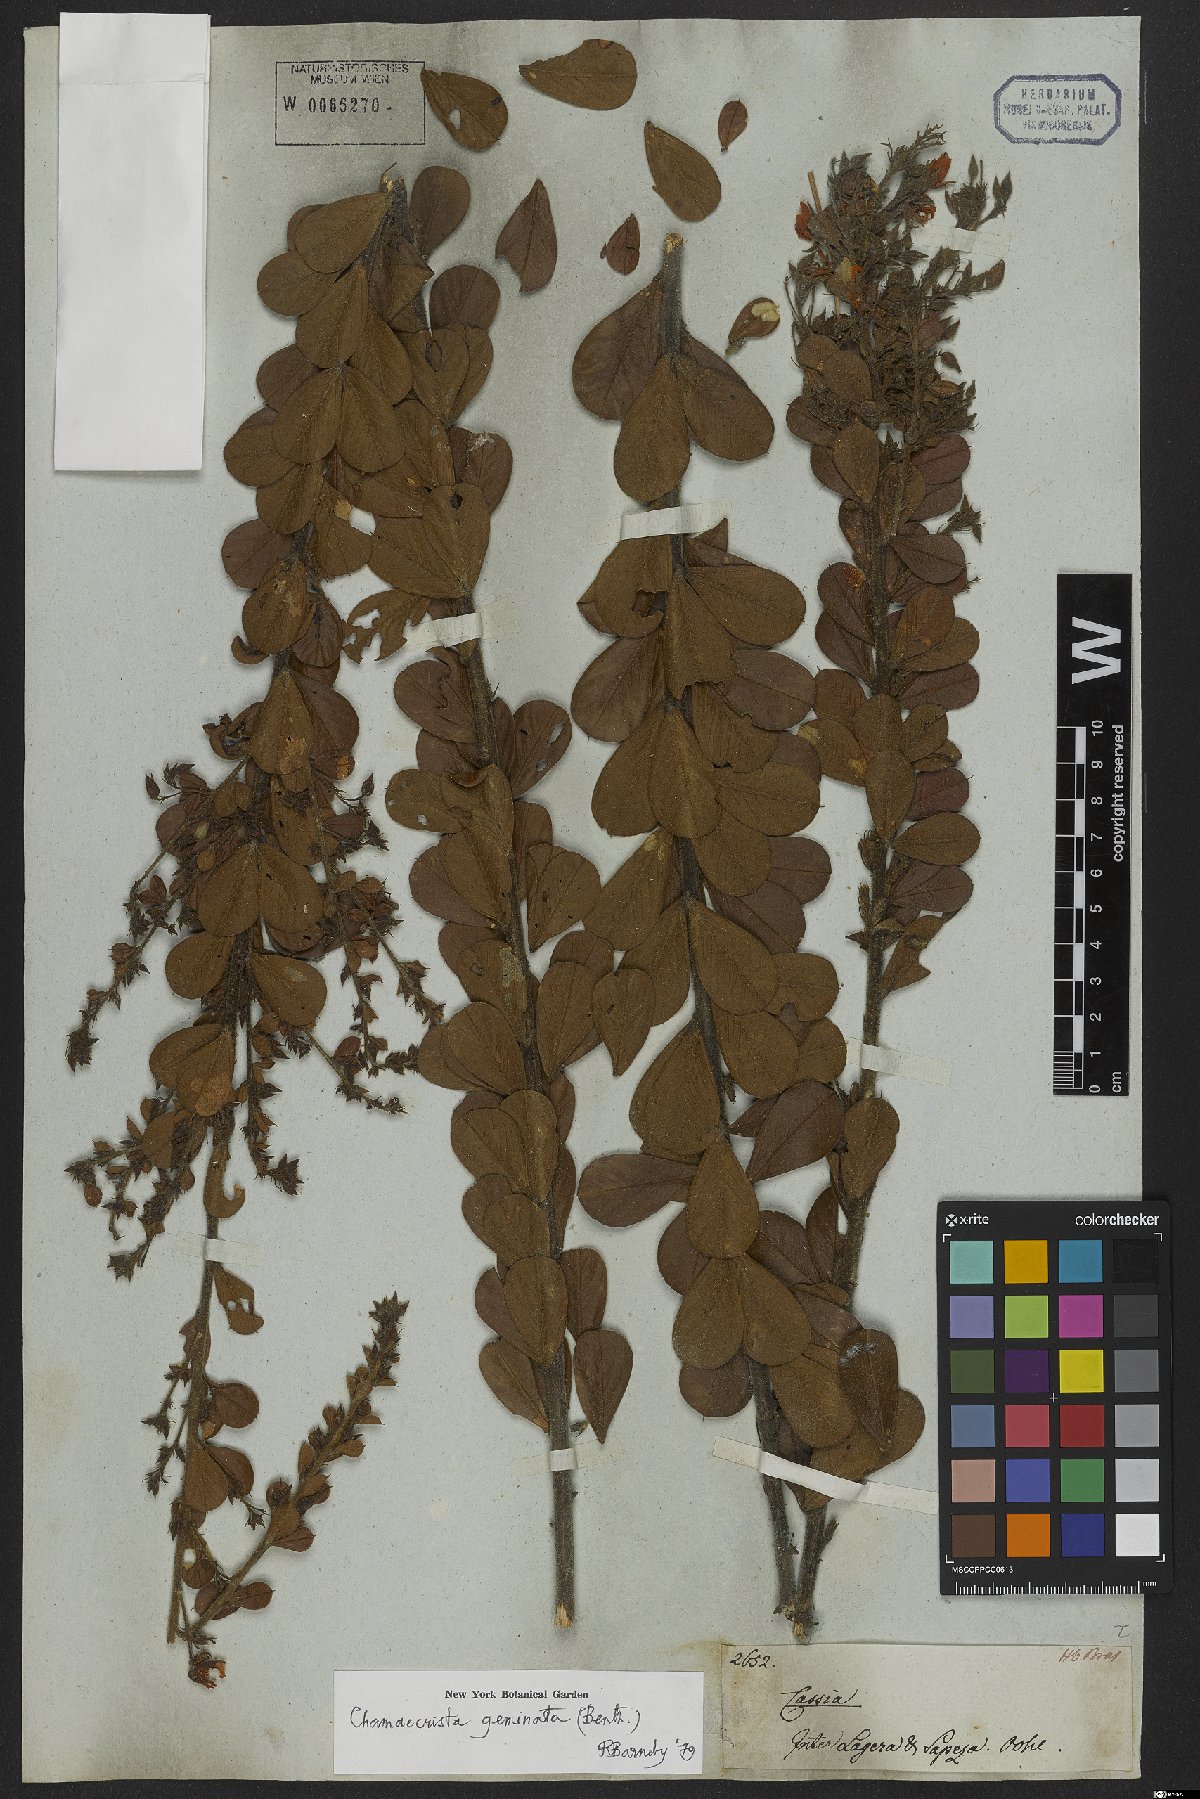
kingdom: Plantae
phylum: Tracheophyta
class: Magnoliopsida
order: Fabales
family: Fabaceae
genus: Chamaecrista
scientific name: Chamaecrista geminata
